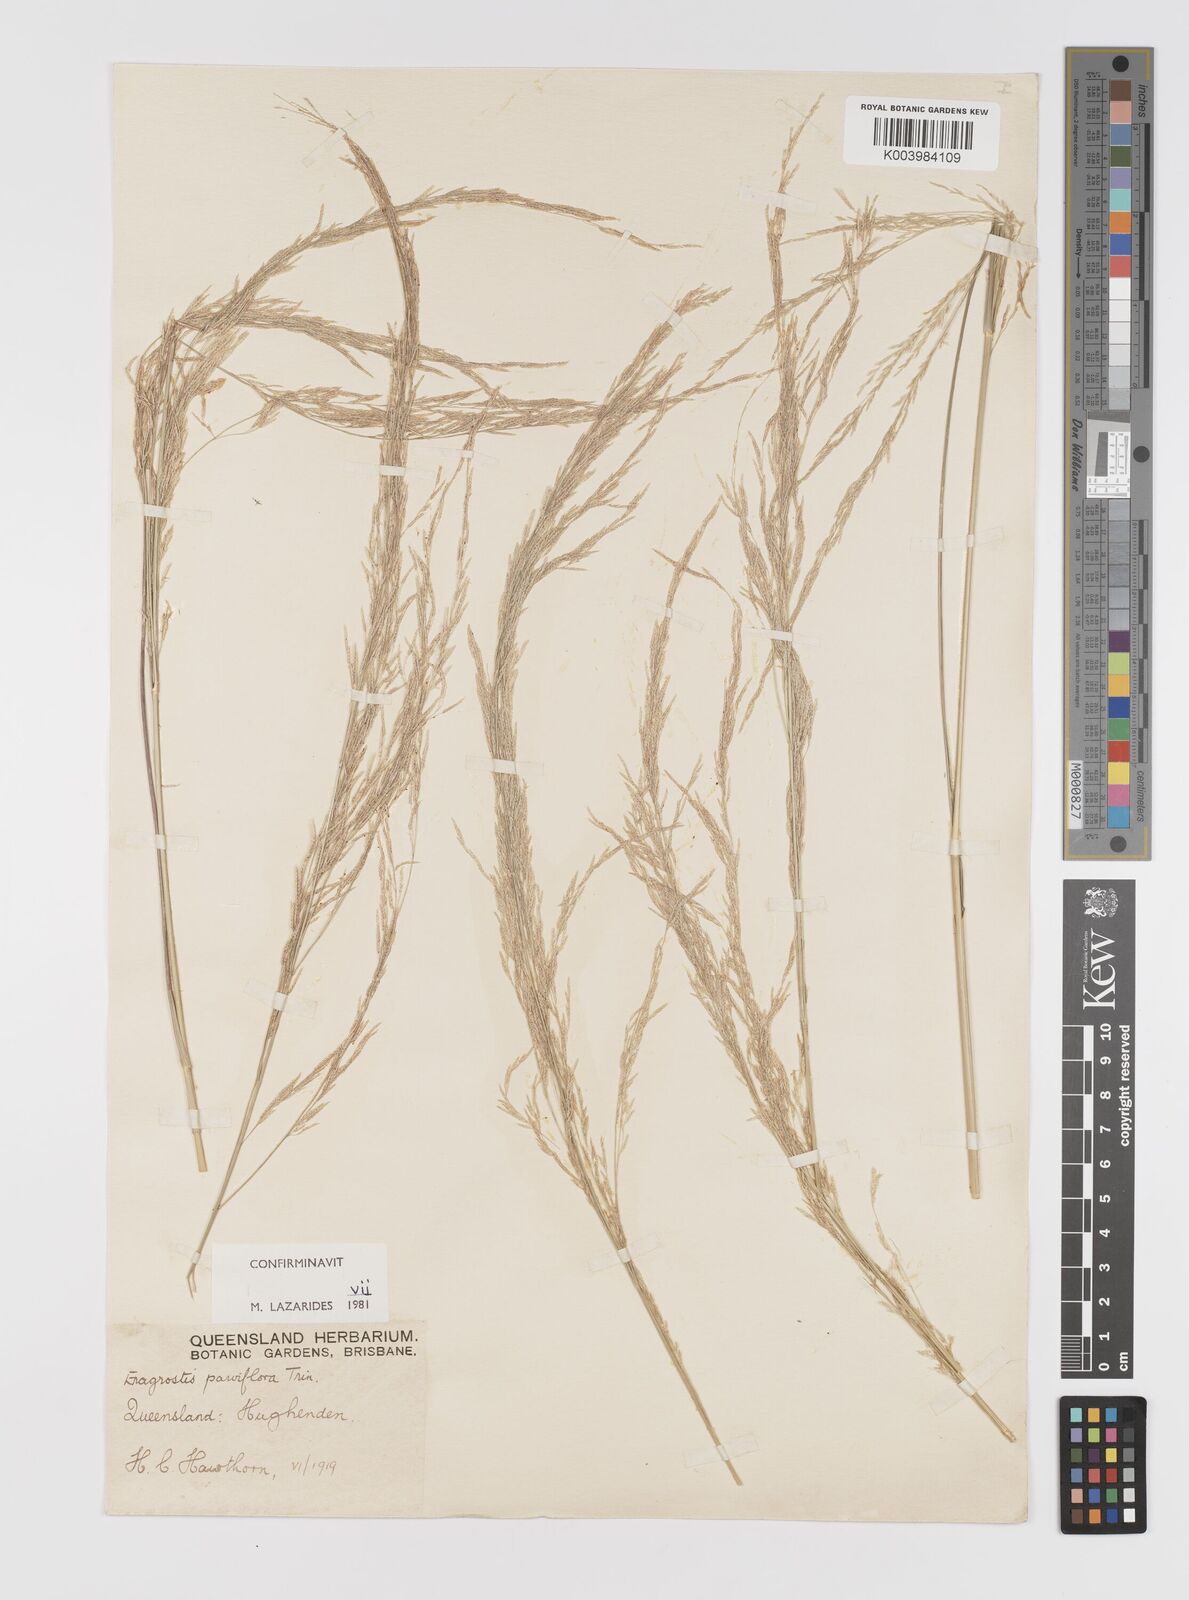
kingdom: Plantae
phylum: Tracheophyta
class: Liliopsida
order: Poales
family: Poaceae
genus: Eragrostis
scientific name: Eragrostis parviflora
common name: Weeping love-grass
